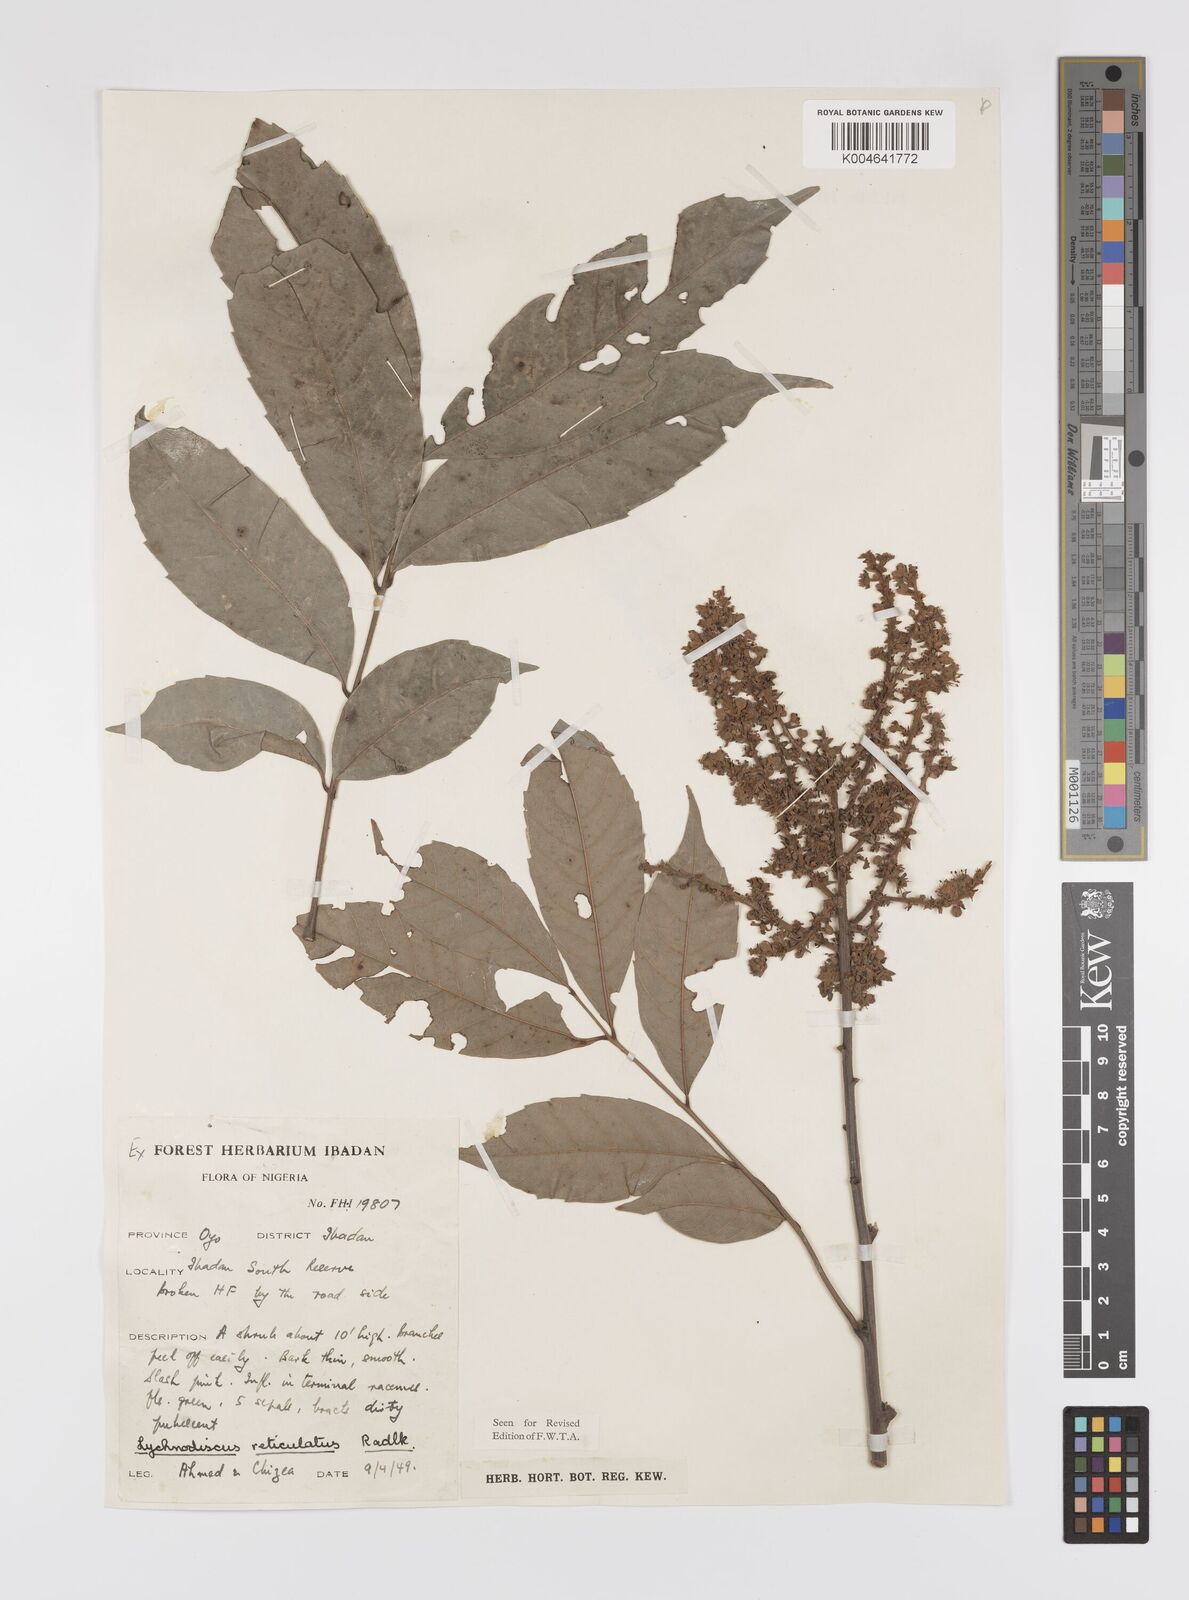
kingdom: Plantae
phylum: Tracheophyta
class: Magnoliopsida
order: Sapindales
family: Sapindaceae
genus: Lychnodiscus
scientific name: Lychnodiscus reticulatus
